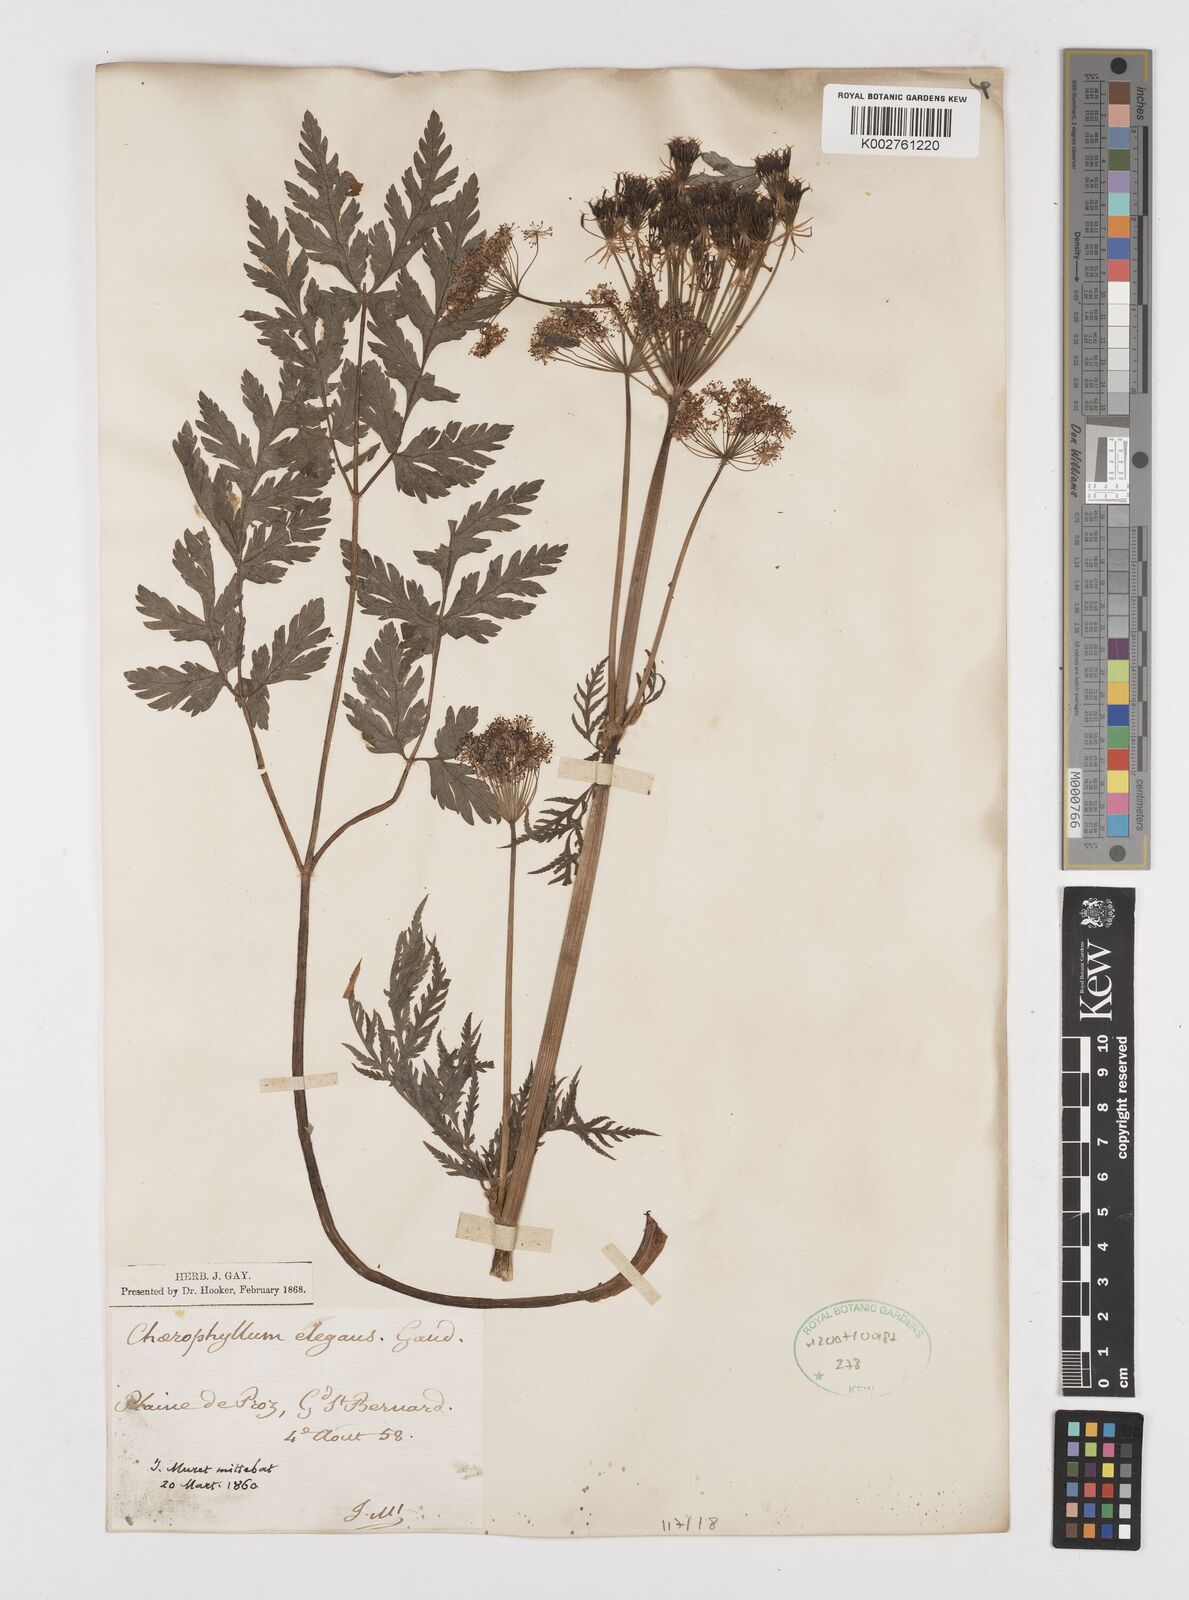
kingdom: Plantae
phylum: Tracheophyta
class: Magnoliopsida
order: Apiales
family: Apiaceae
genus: Chaerophyllum
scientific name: Chaerophyllum elegans
